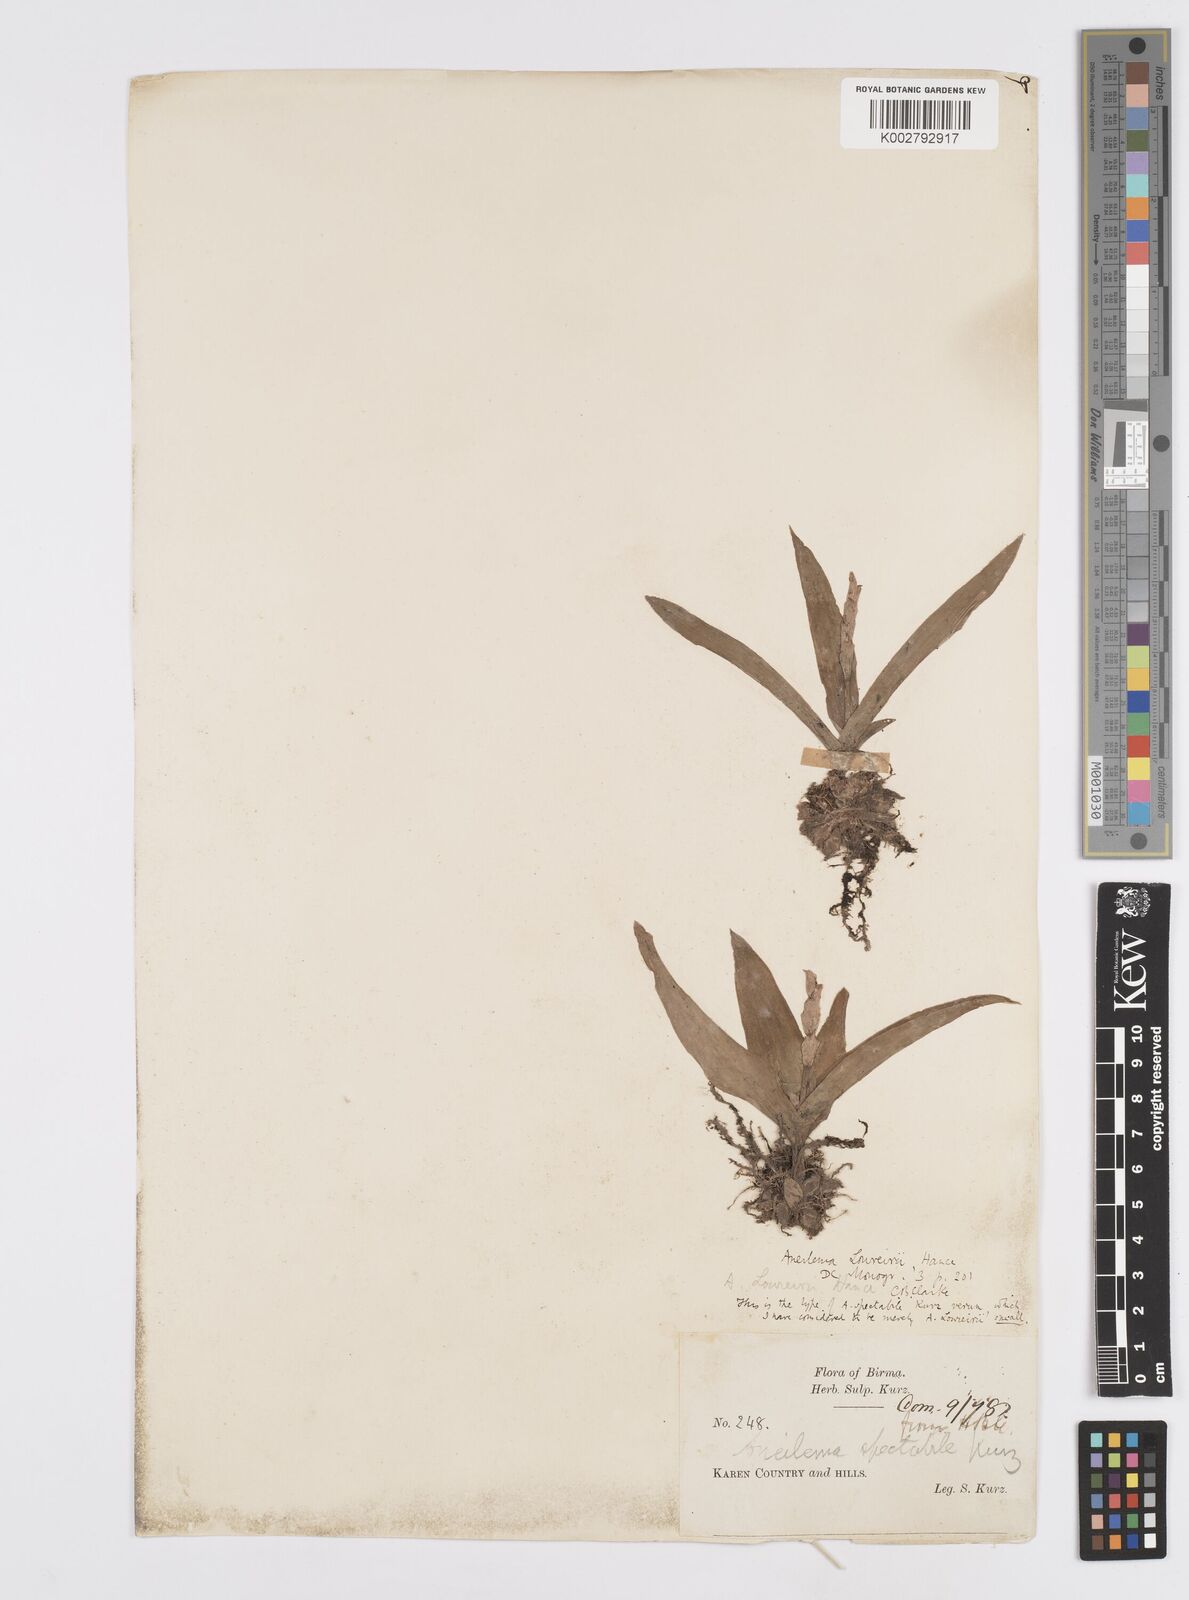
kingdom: Plantae
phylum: Tracheophyta
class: Liliopsida
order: Commelinales
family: Commelinaceae
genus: Murdannia
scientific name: Murdannia edulis
